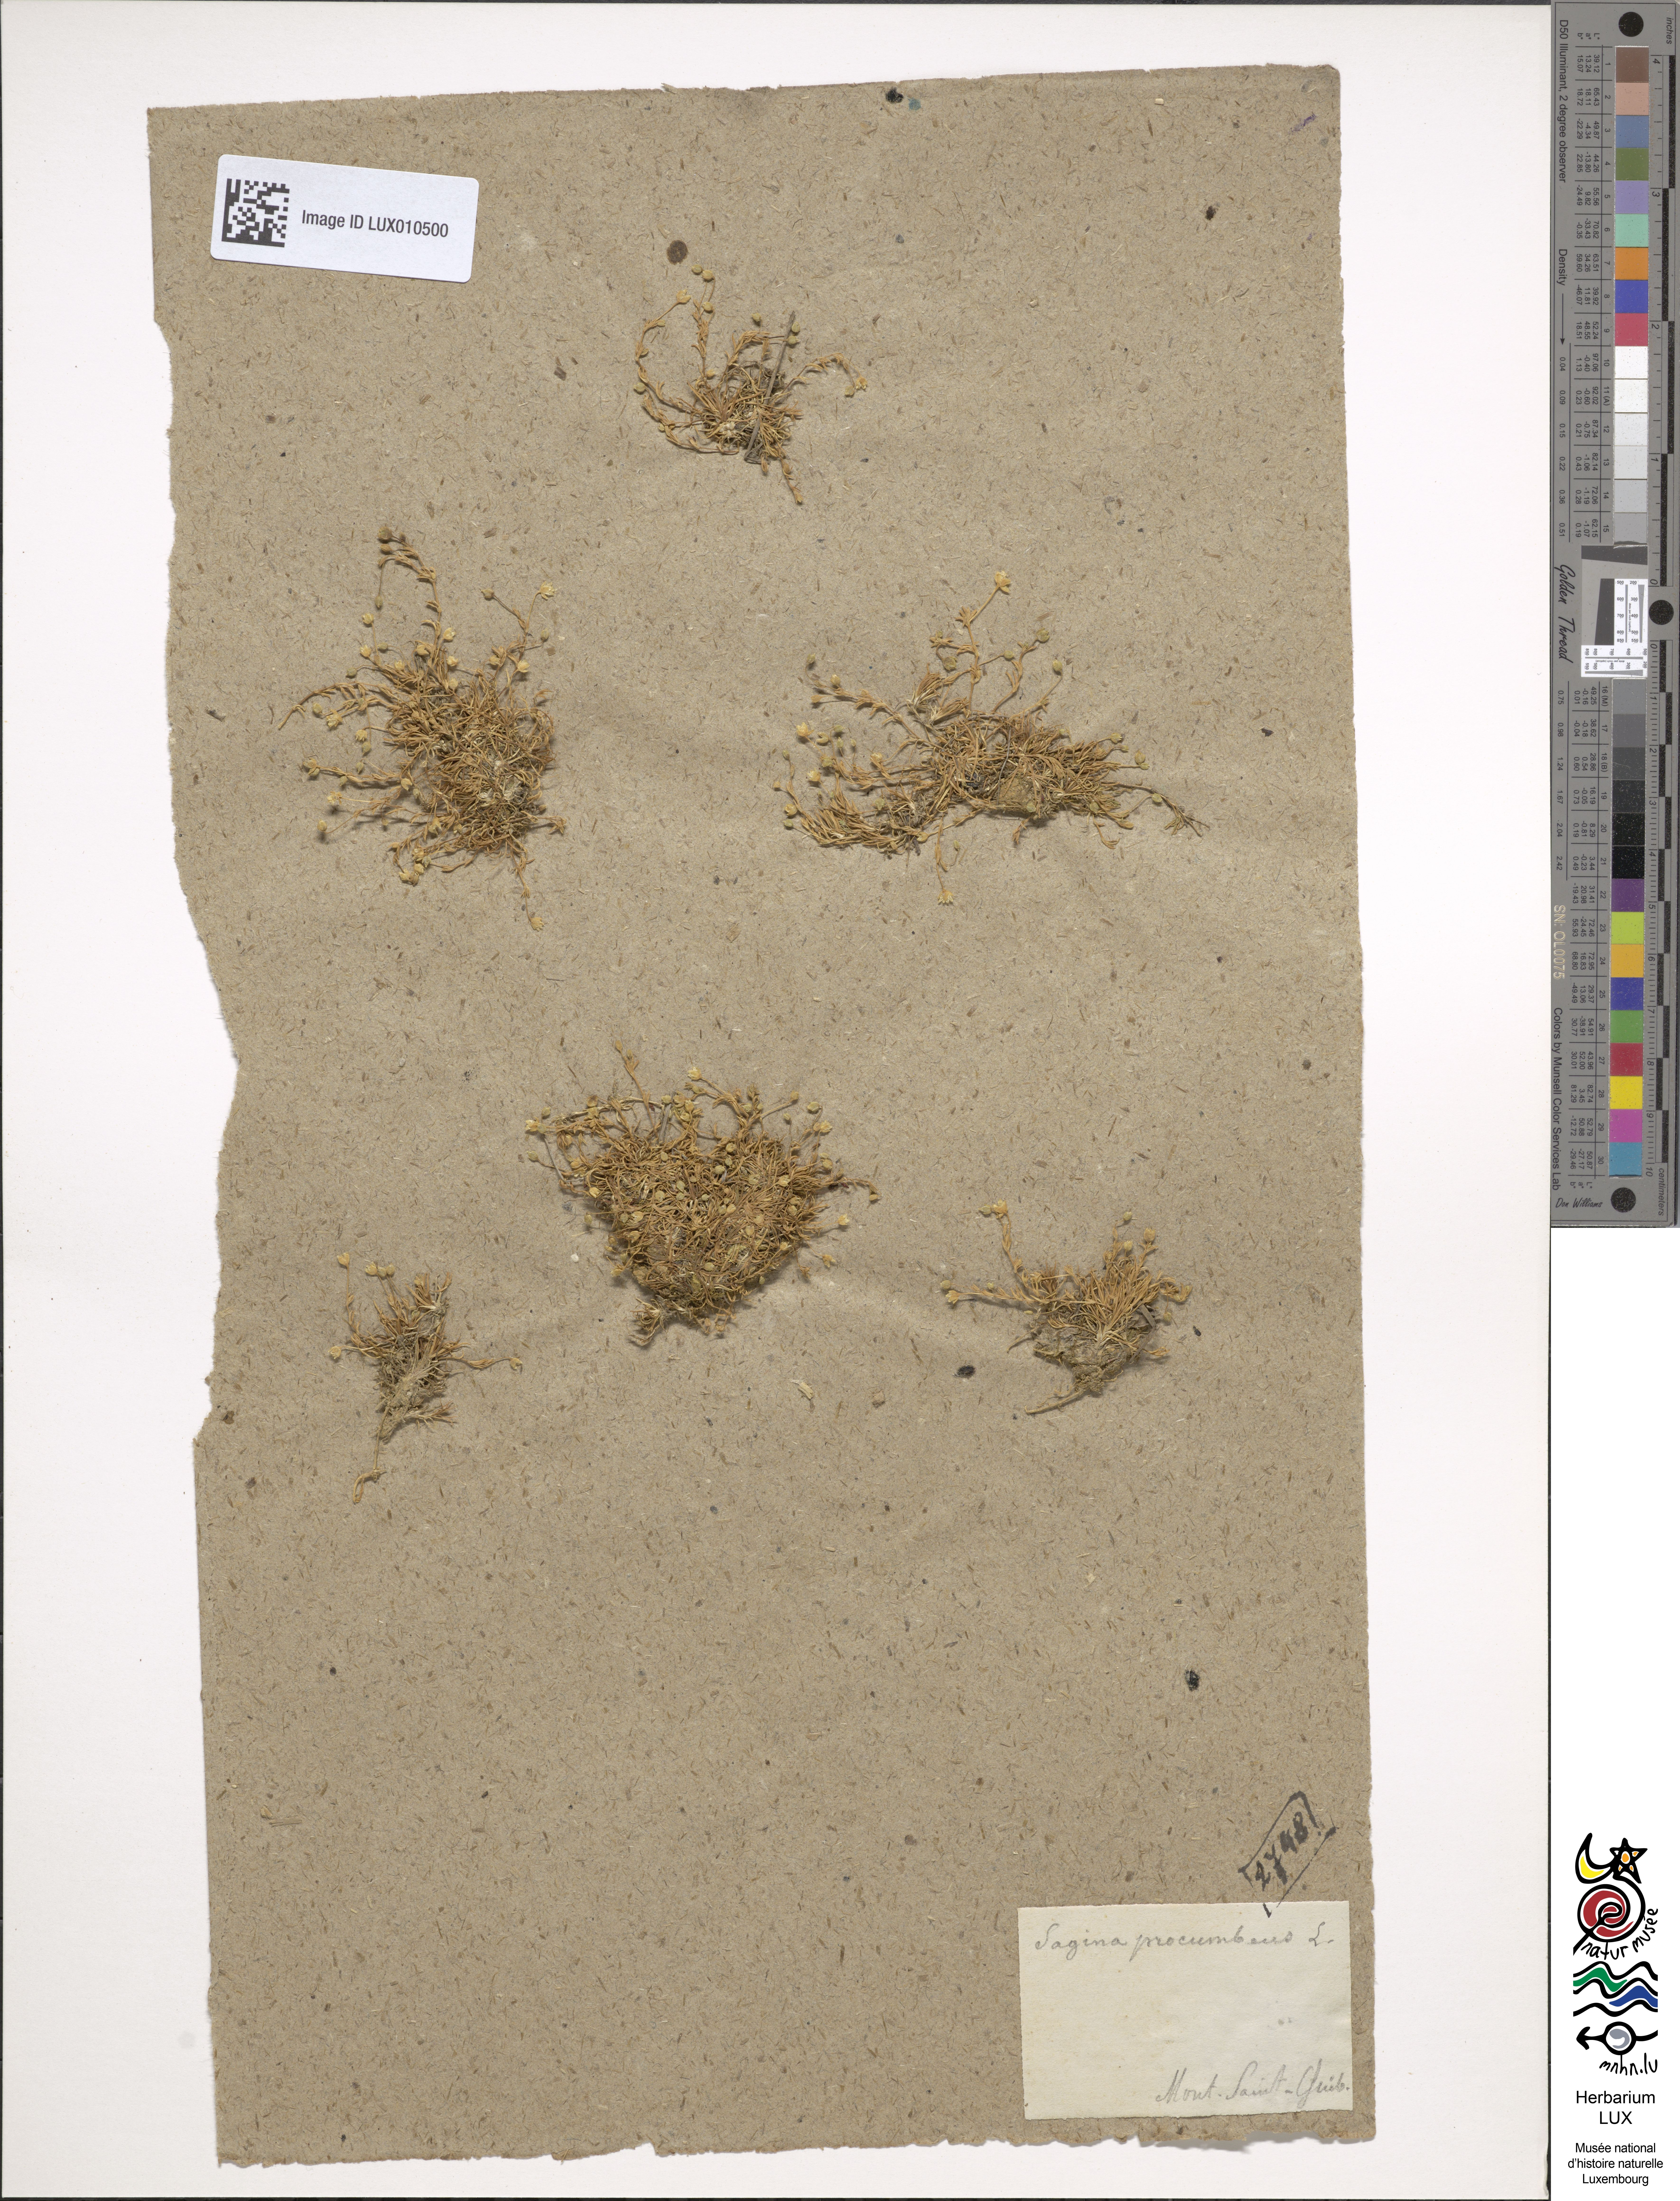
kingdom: Plantae
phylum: Tracheophyta
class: Magnoliopsida
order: Caryophyllales
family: Caryophyllaceae
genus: Sagina
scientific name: Sagina procumbens
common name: Procumbent pearlwort
